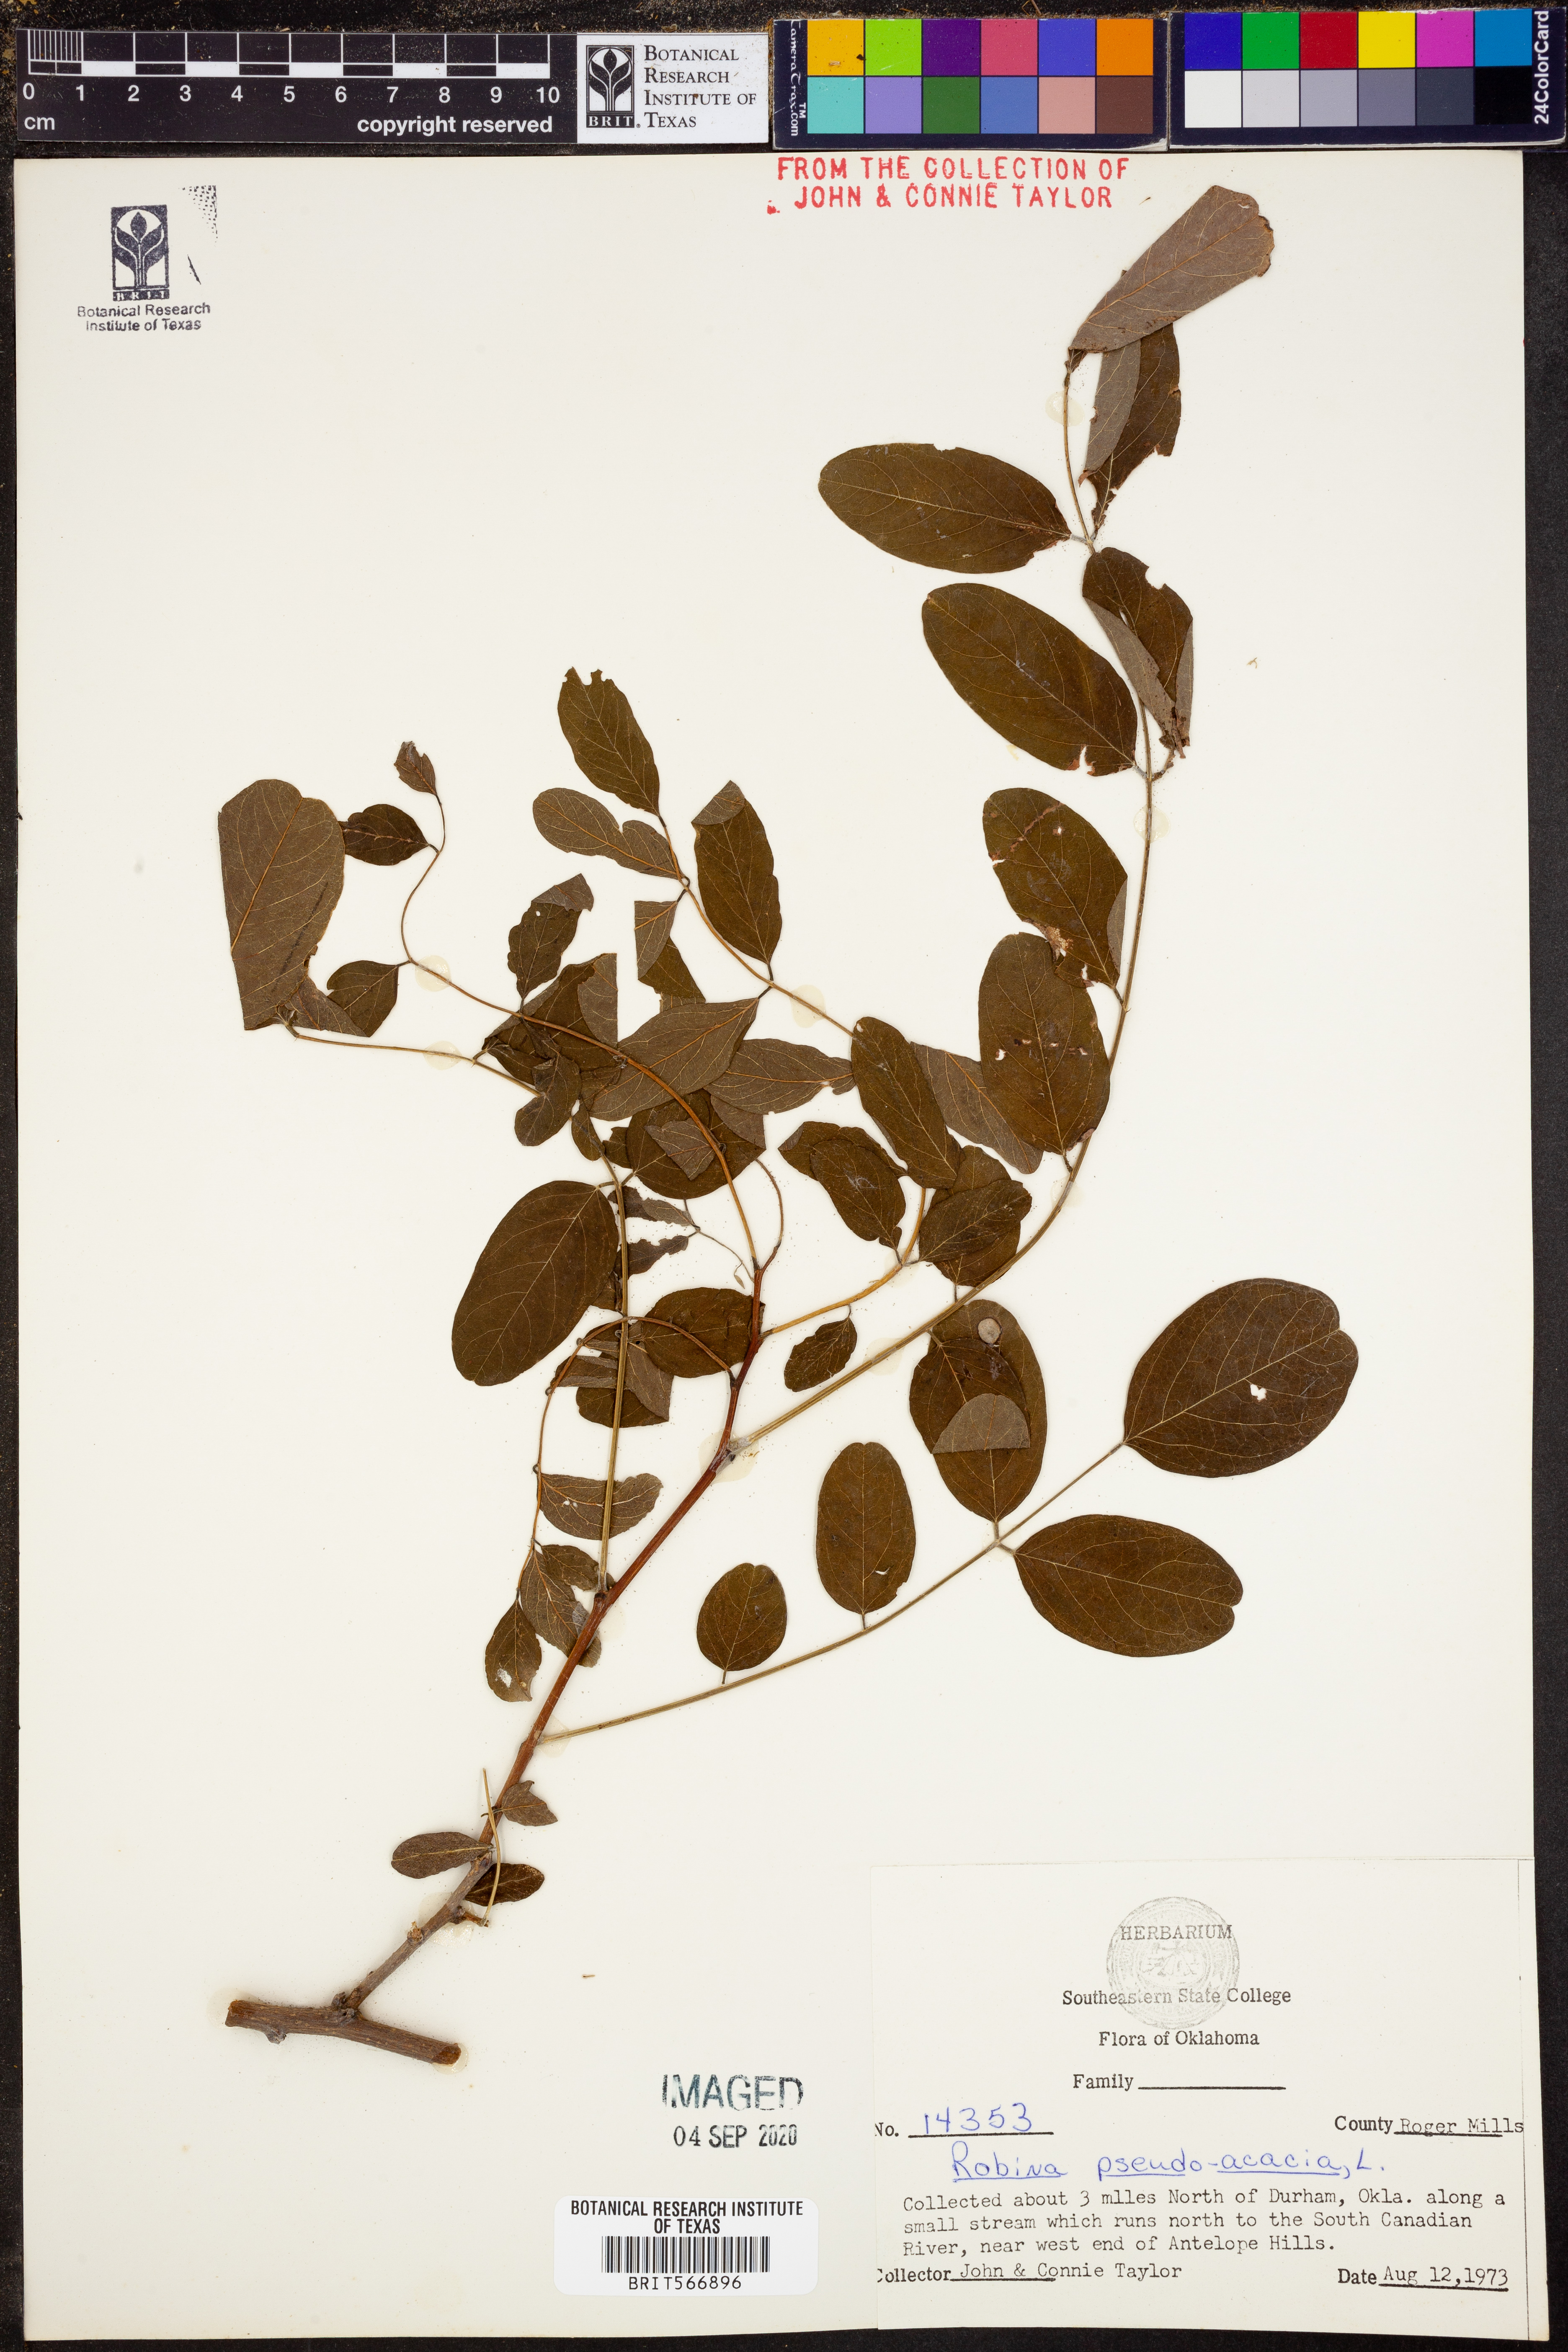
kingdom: Plantae
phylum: Tracheophyta
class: Magnoliopsida
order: Fabales
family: Fabaceae
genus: Robinia
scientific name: Robinia pseudoacacia
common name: Black locust
